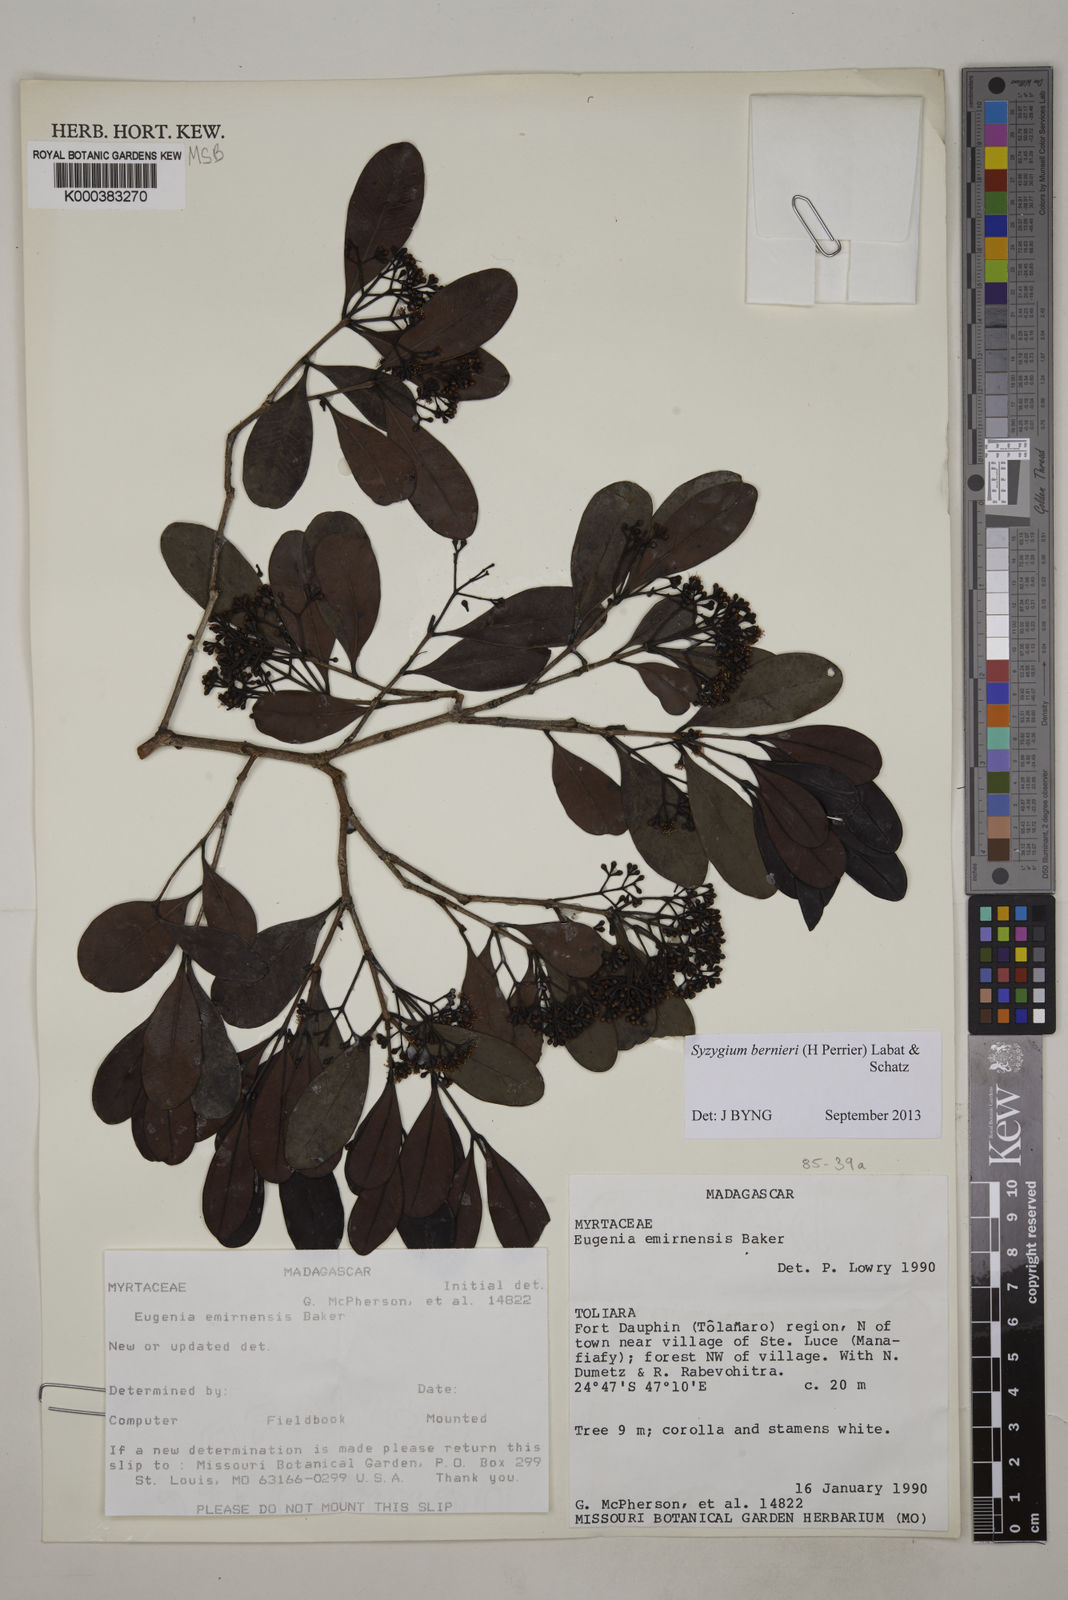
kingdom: Plantae
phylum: Tracheophyta
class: Magnoliopsida
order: Myrtales
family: Myrtaceae
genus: Syzygium
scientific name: Syzygium emirnense
